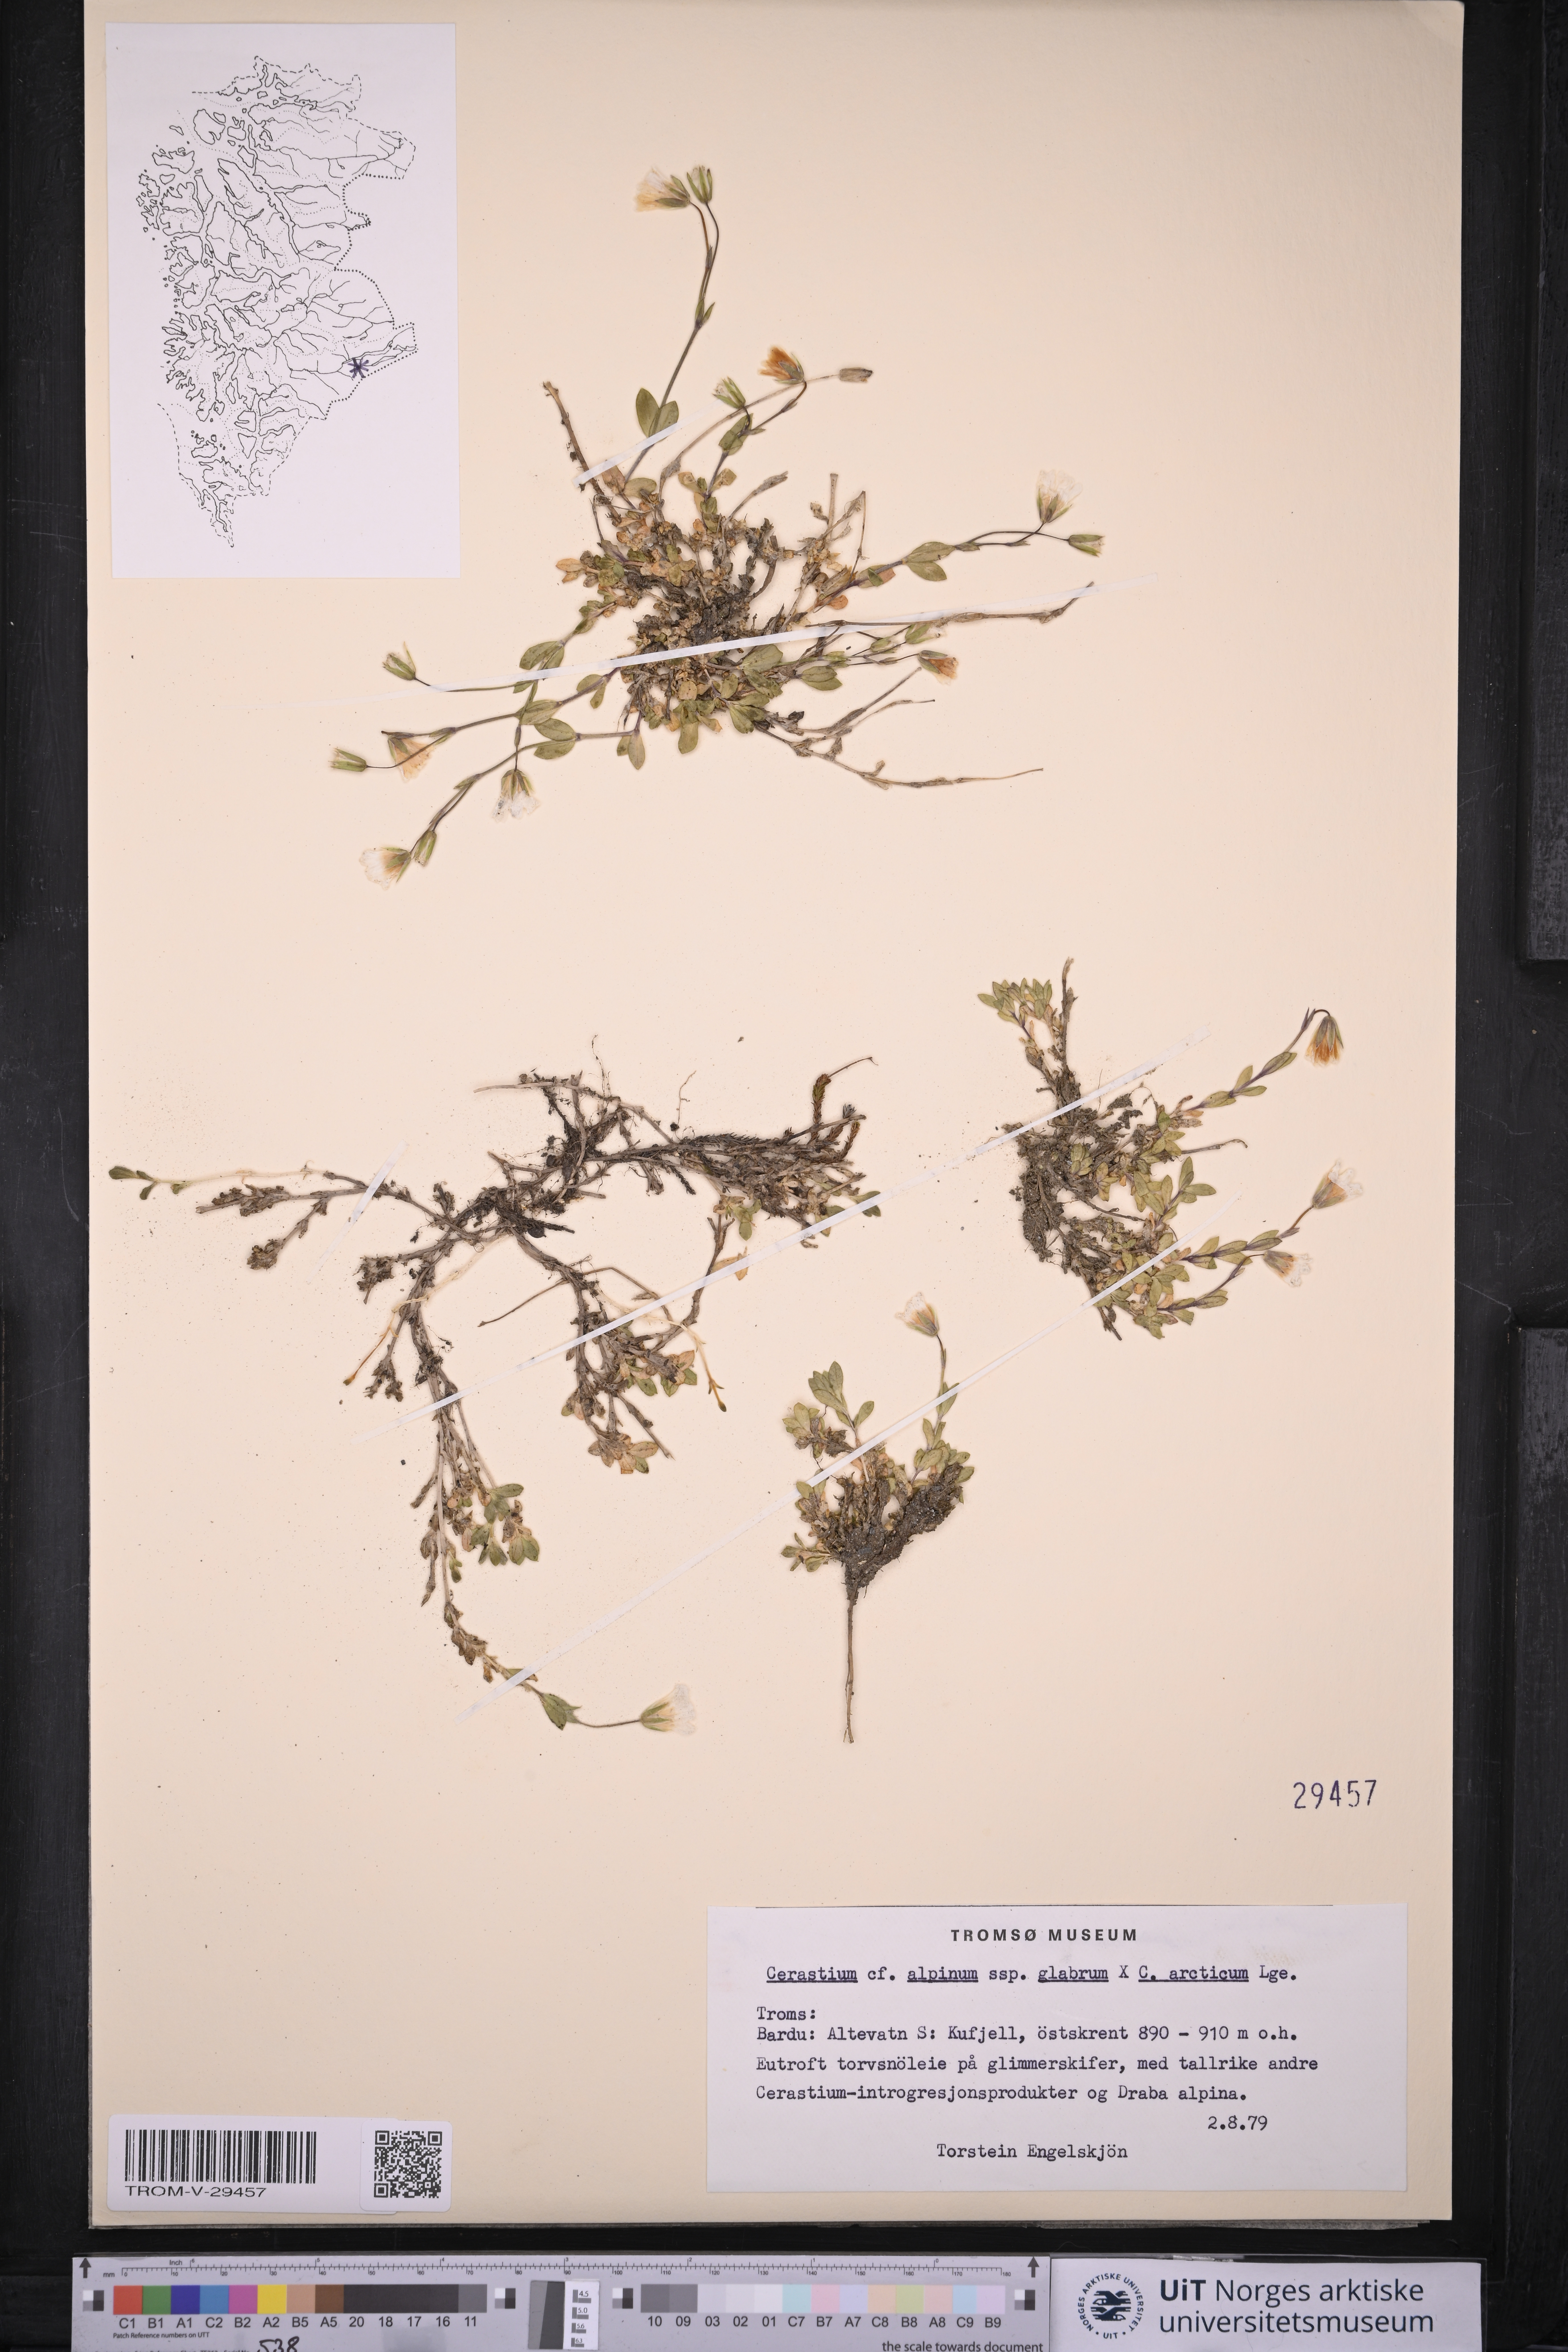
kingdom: Plantae
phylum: Tracheophyta
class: Magnoliopsida
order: Caryophyllales
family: Caryophyllaceae
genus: Cerastium
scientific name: Cerastium alpinum
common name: Alpine mouse-ear
